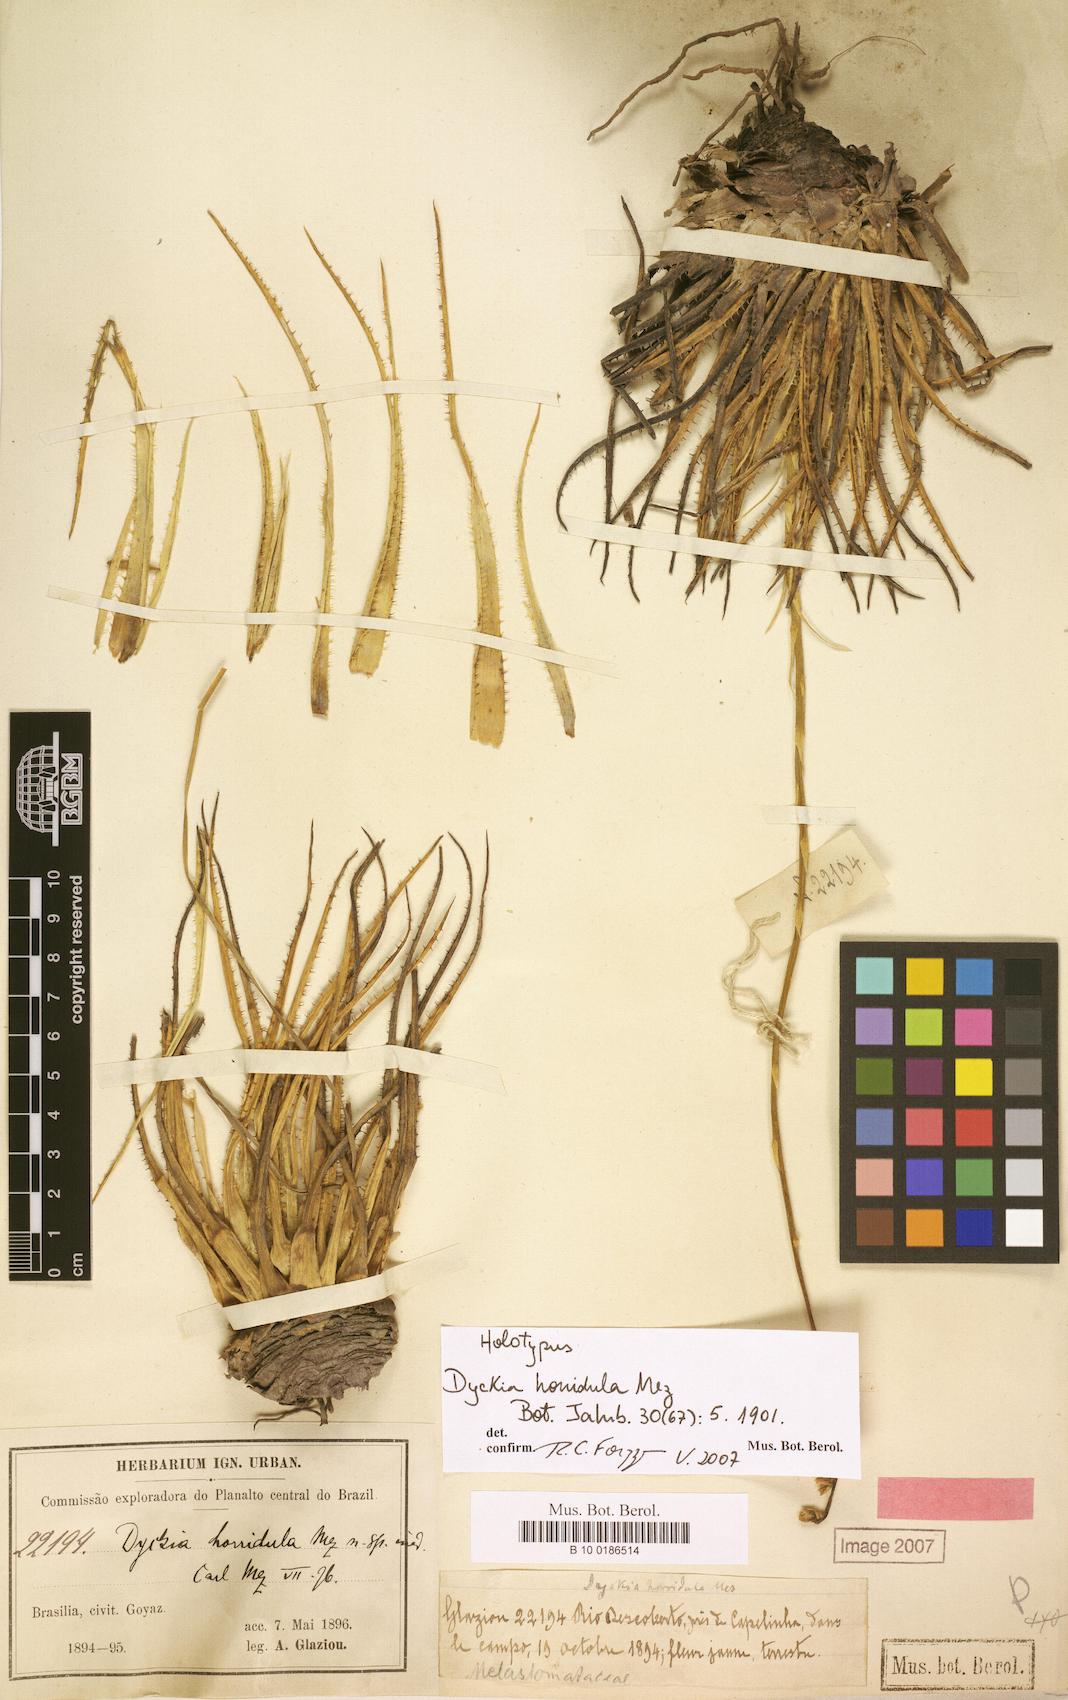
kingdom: Plantae
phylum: Tracheophyta
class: Liliopsida
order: Poales
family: Bromeliaceae
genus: Dyckia
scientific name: Dyckia horridula
